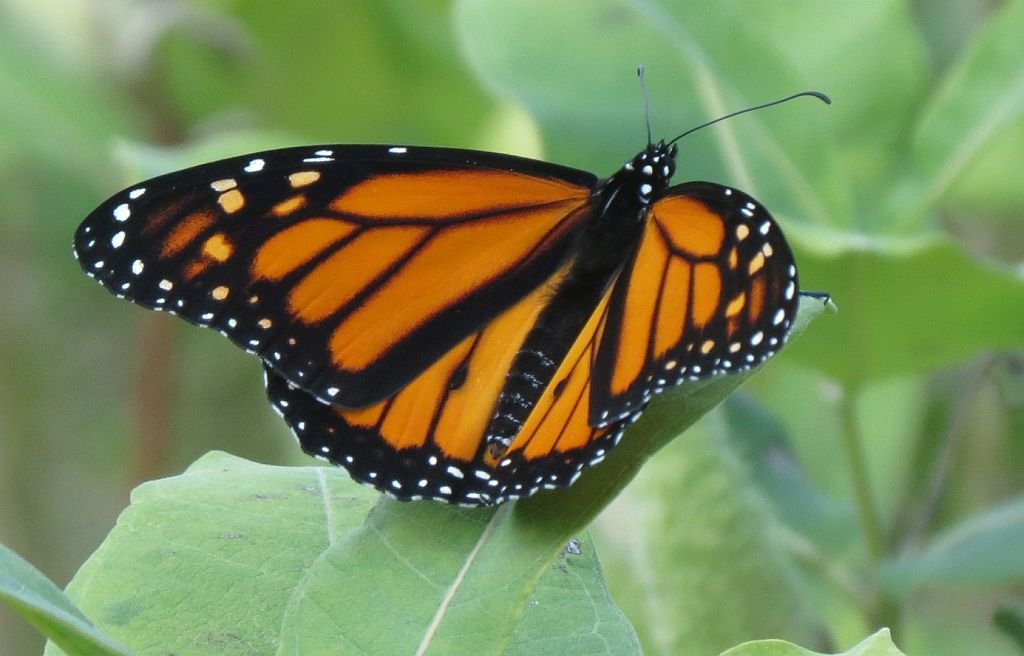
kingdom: Animalia
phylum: Arthropoda
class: Insecta
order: Lepidoptera
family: Nymphalidae
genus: Danaus
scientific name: Danaus plexippus
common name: Monarch
